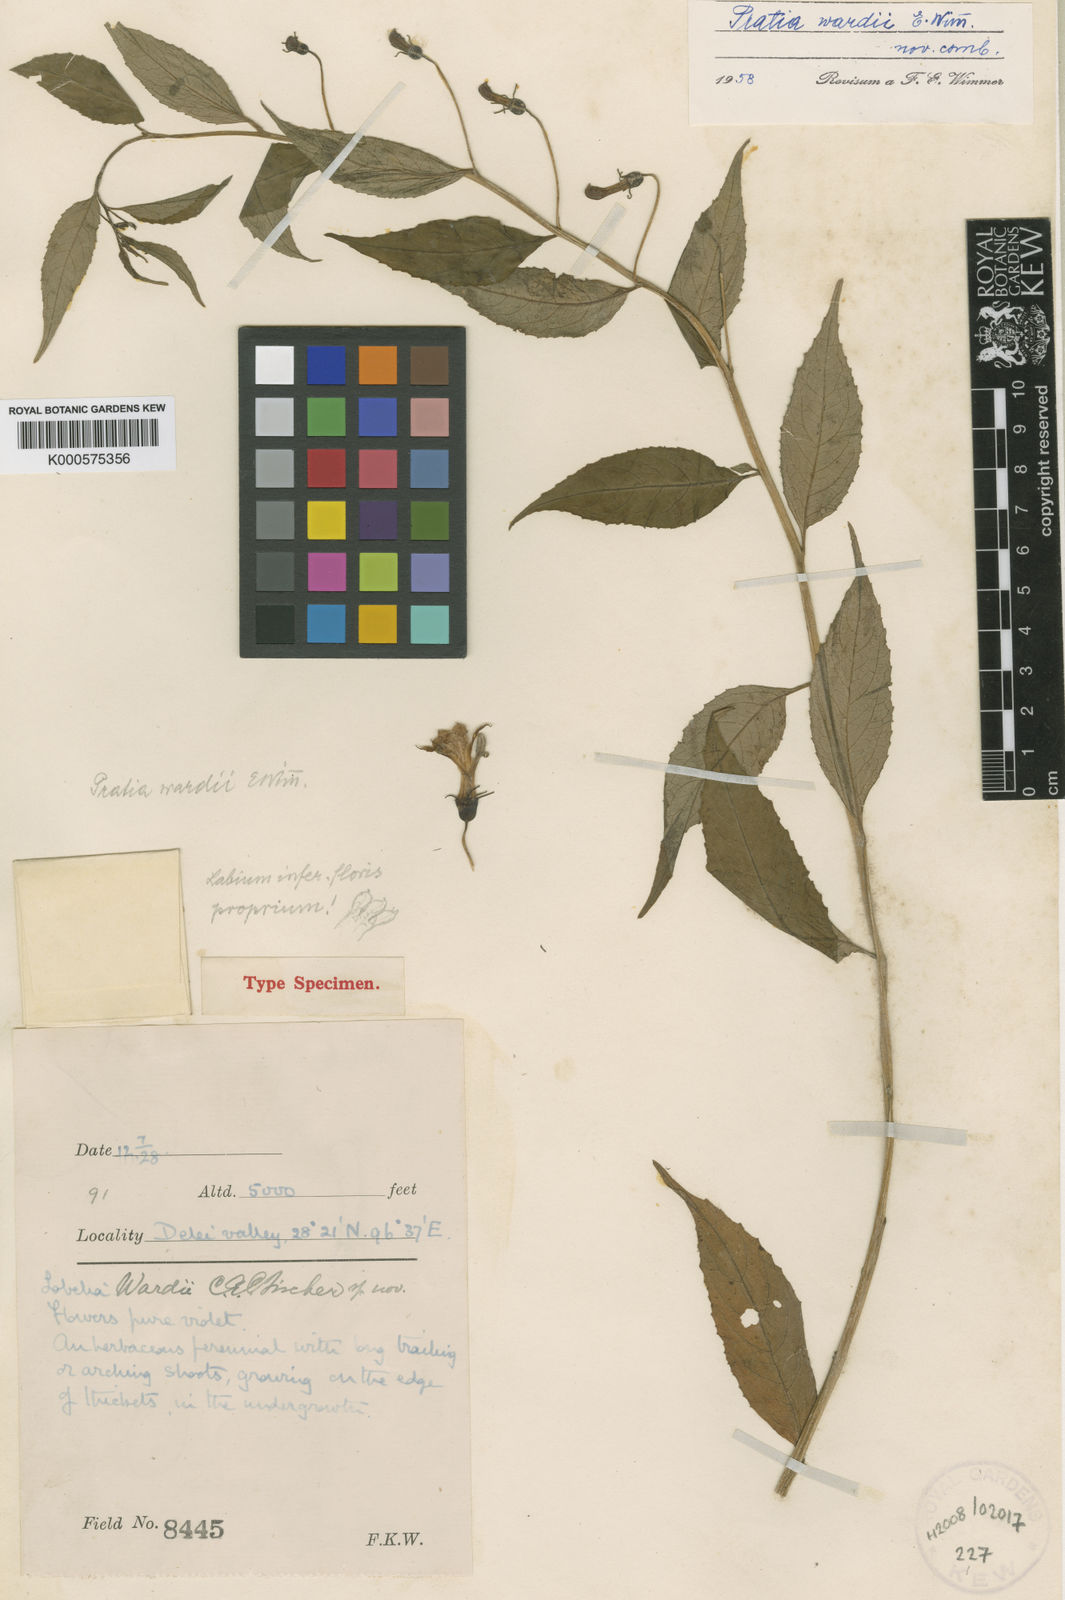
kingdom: Plantae
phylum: Tracheophyta
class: Magnoliopsida
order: Asterales
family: Campanulaceae
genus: Lobelia
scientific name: Lobelia
